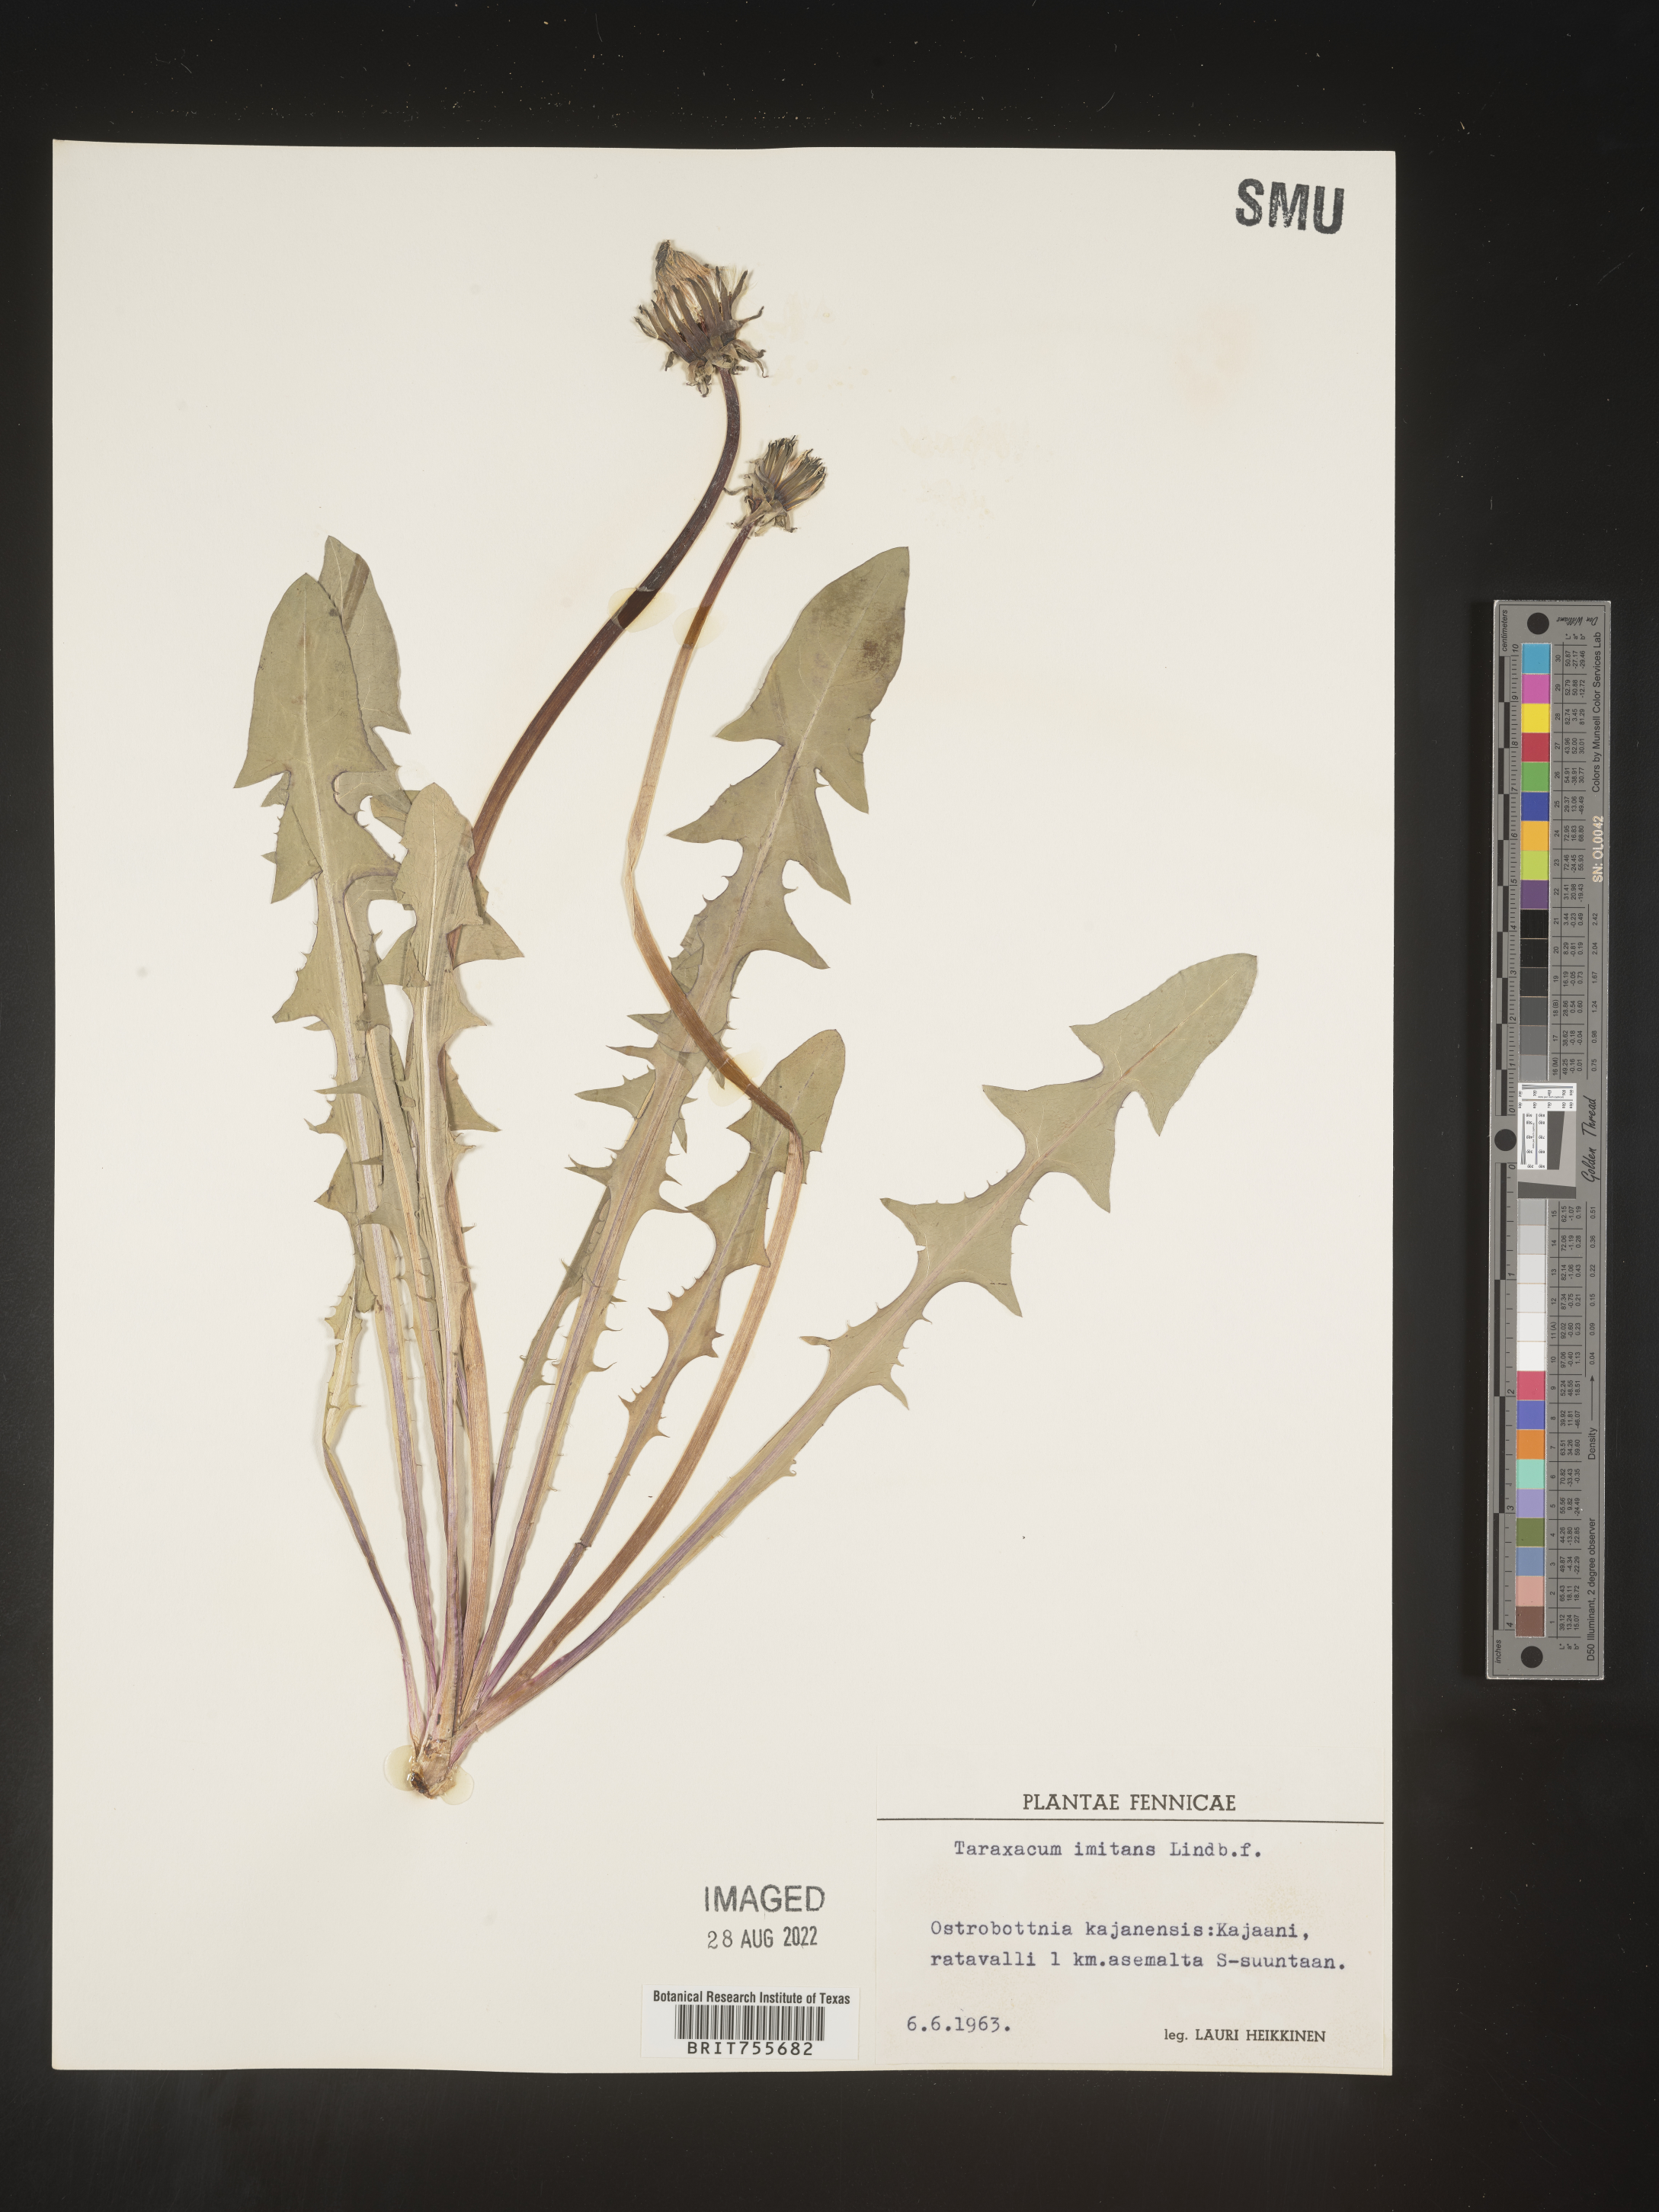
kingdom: Plantae
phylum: Tracheophyta
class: Magnoliopsida
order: Asterales
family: Asteraceae
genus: Taraxacum
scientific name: Taraxacum
